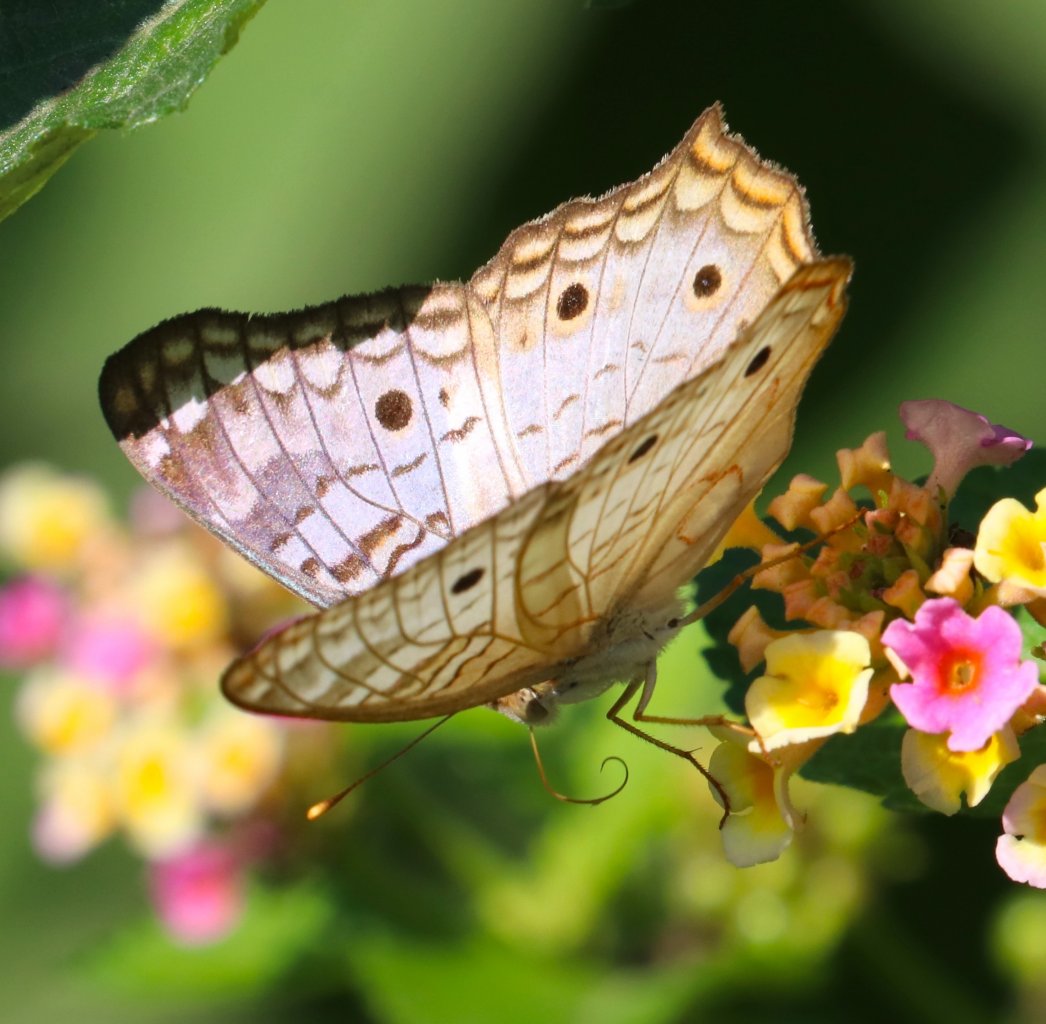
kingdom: Animalia
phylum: Arthropoda
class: Insecta
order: Lepidoptera
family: Nymphalidae
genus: Anartia
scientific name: Anartia jatrophae
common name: White Peacock
